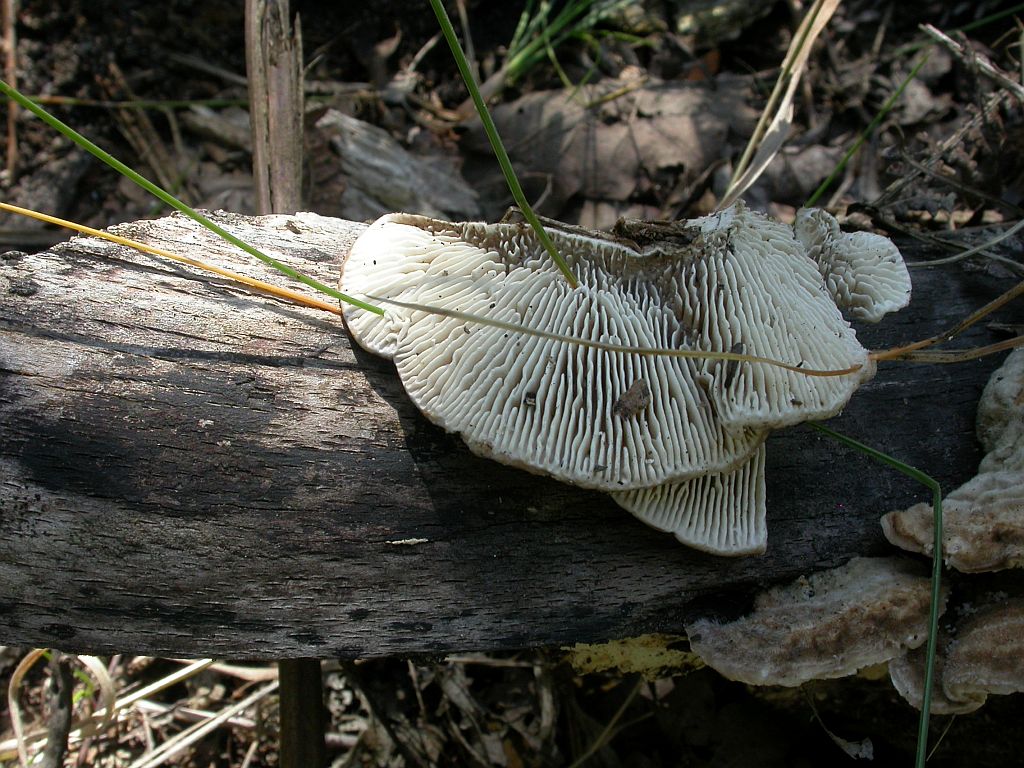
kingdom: Fungi
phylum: Basidiomycota
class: Agaricomycetes
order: Polyporales
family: Polyporaceae
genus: Lenzites
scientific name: Lenzites betulinus
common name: birke-læderporesvamp
